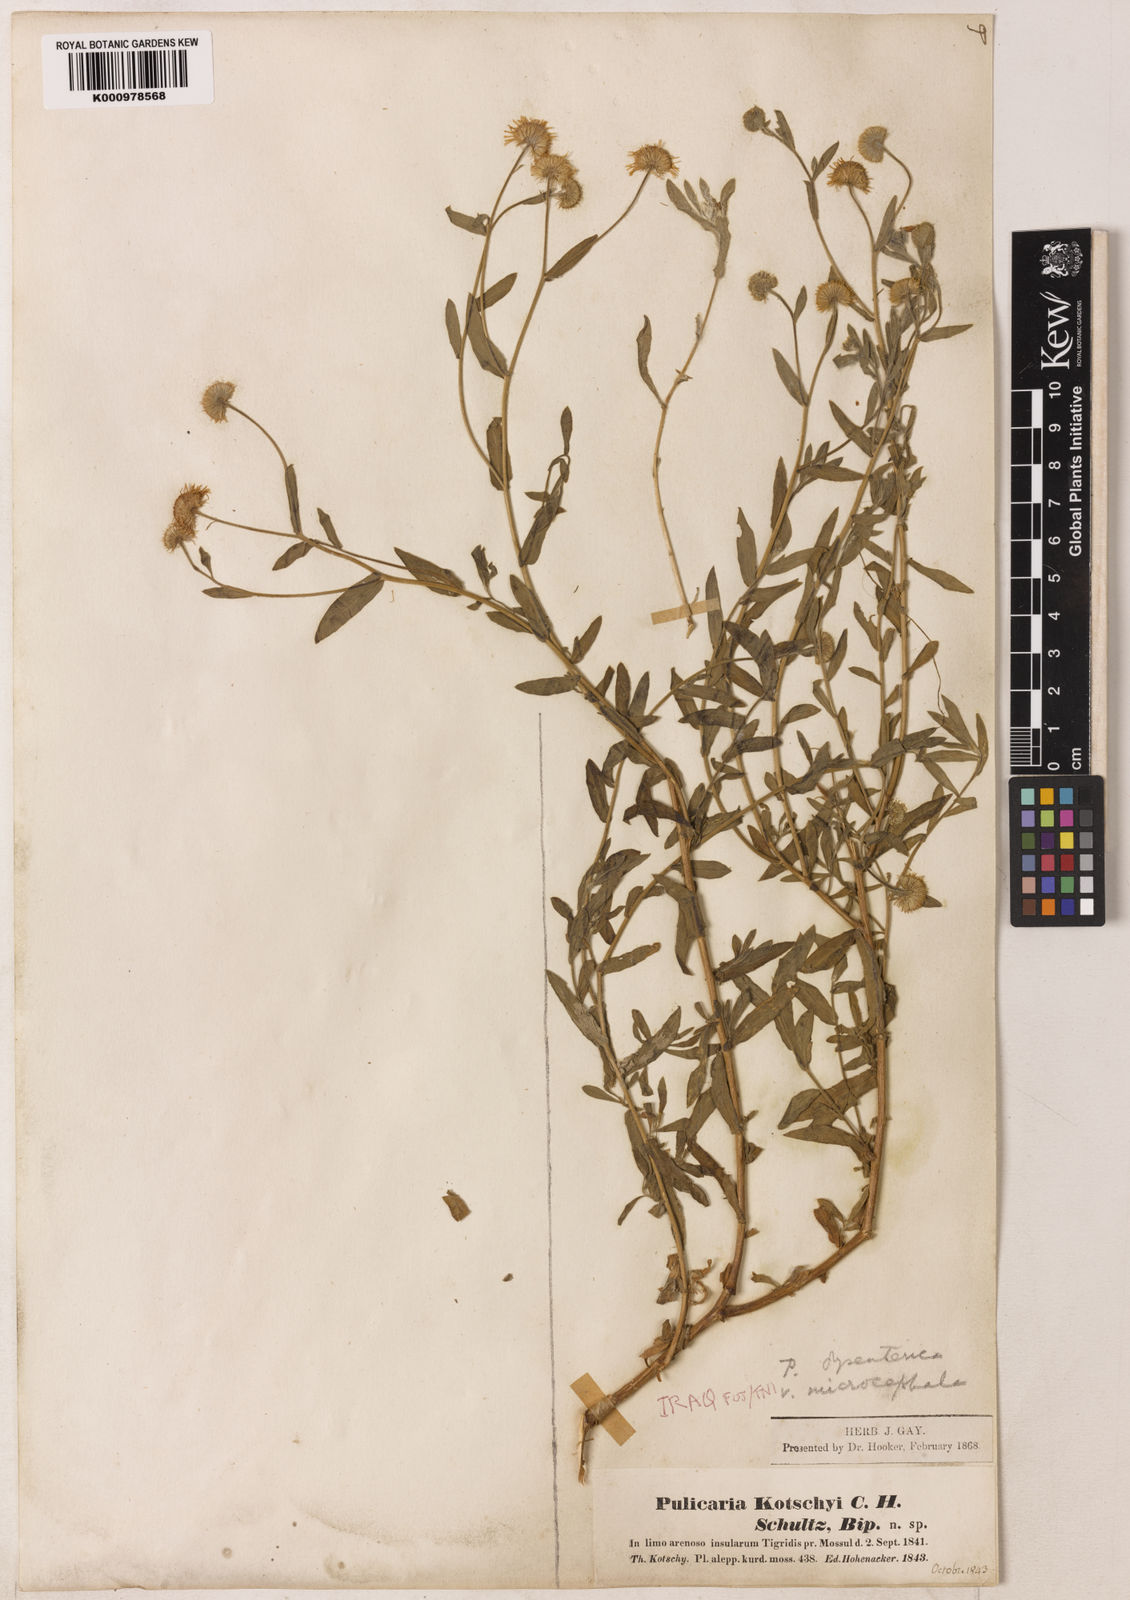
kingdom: Plantae
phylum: Tracheophyta
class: Magnoliopsida
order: Asterales
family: Asteraceae
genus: Pulicaria
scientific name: Pulicaria
